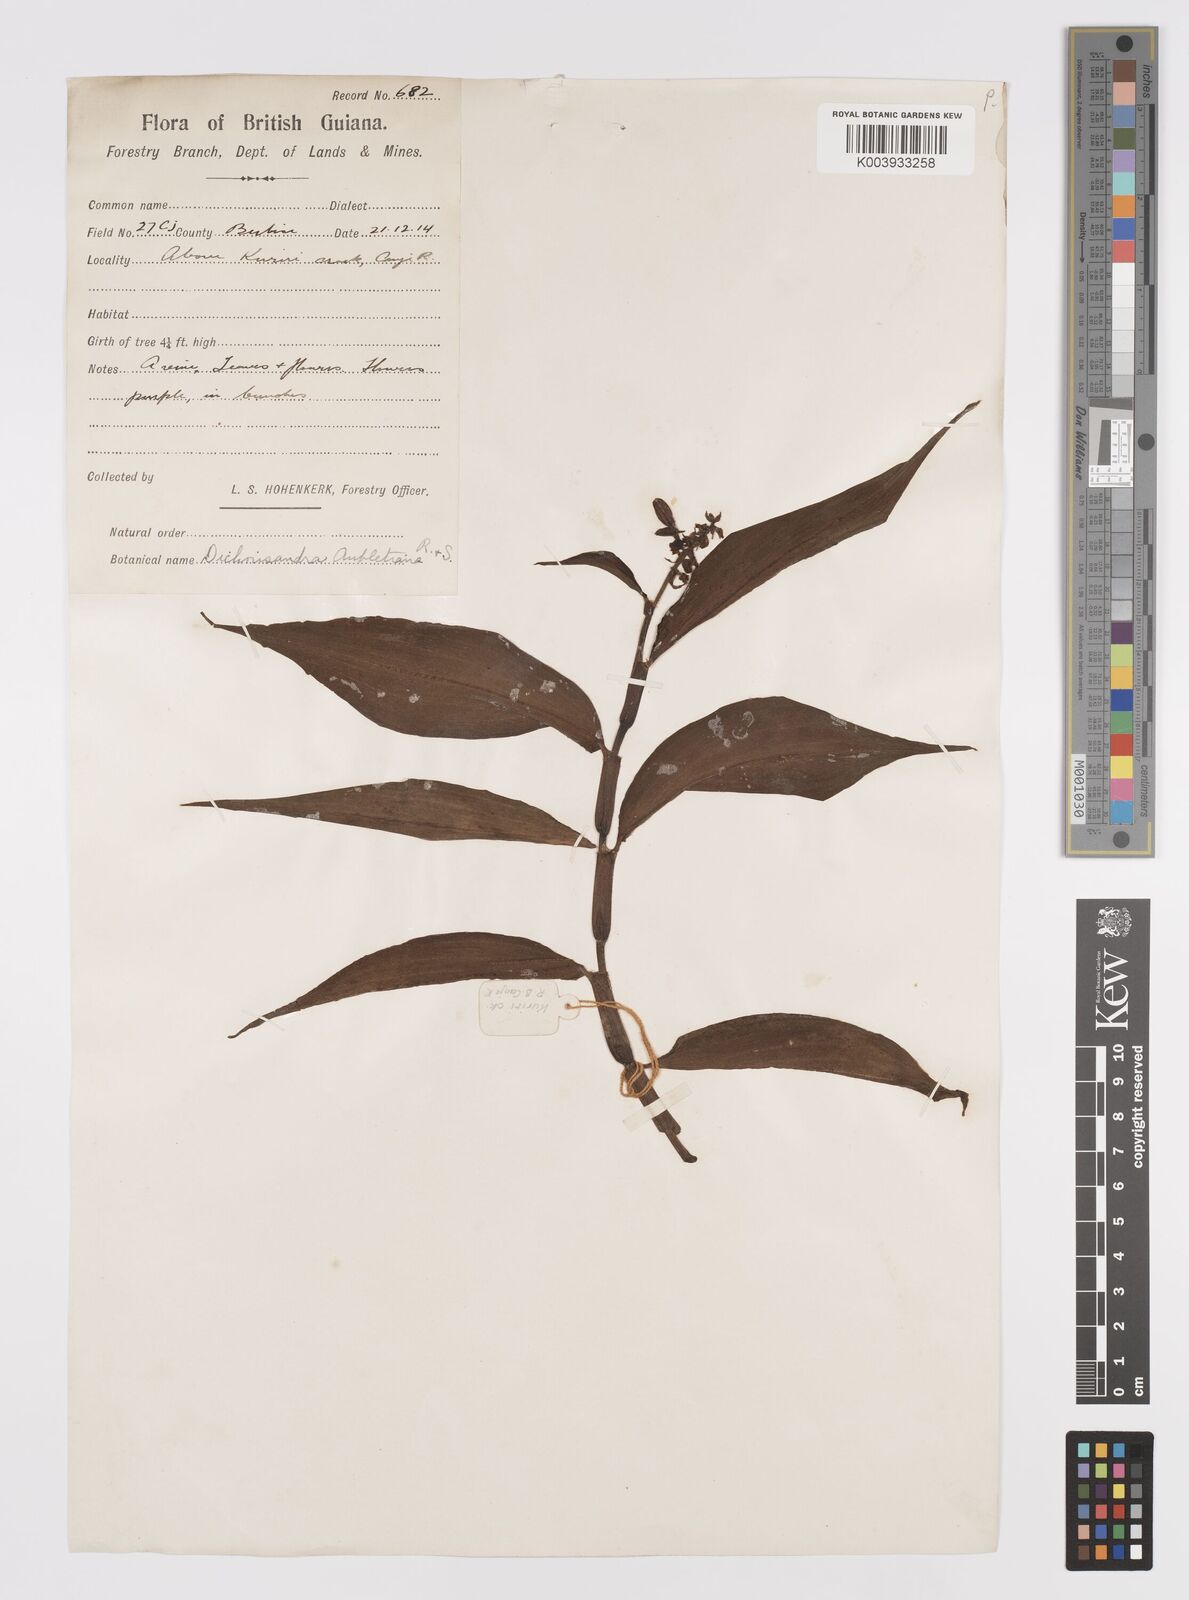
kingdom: Plantae
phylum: Tracheophyta
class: Liliopsida
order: Commelinales
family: Commelinaceae
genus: Dichorisandra
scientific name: Dichorisandra hexandra
